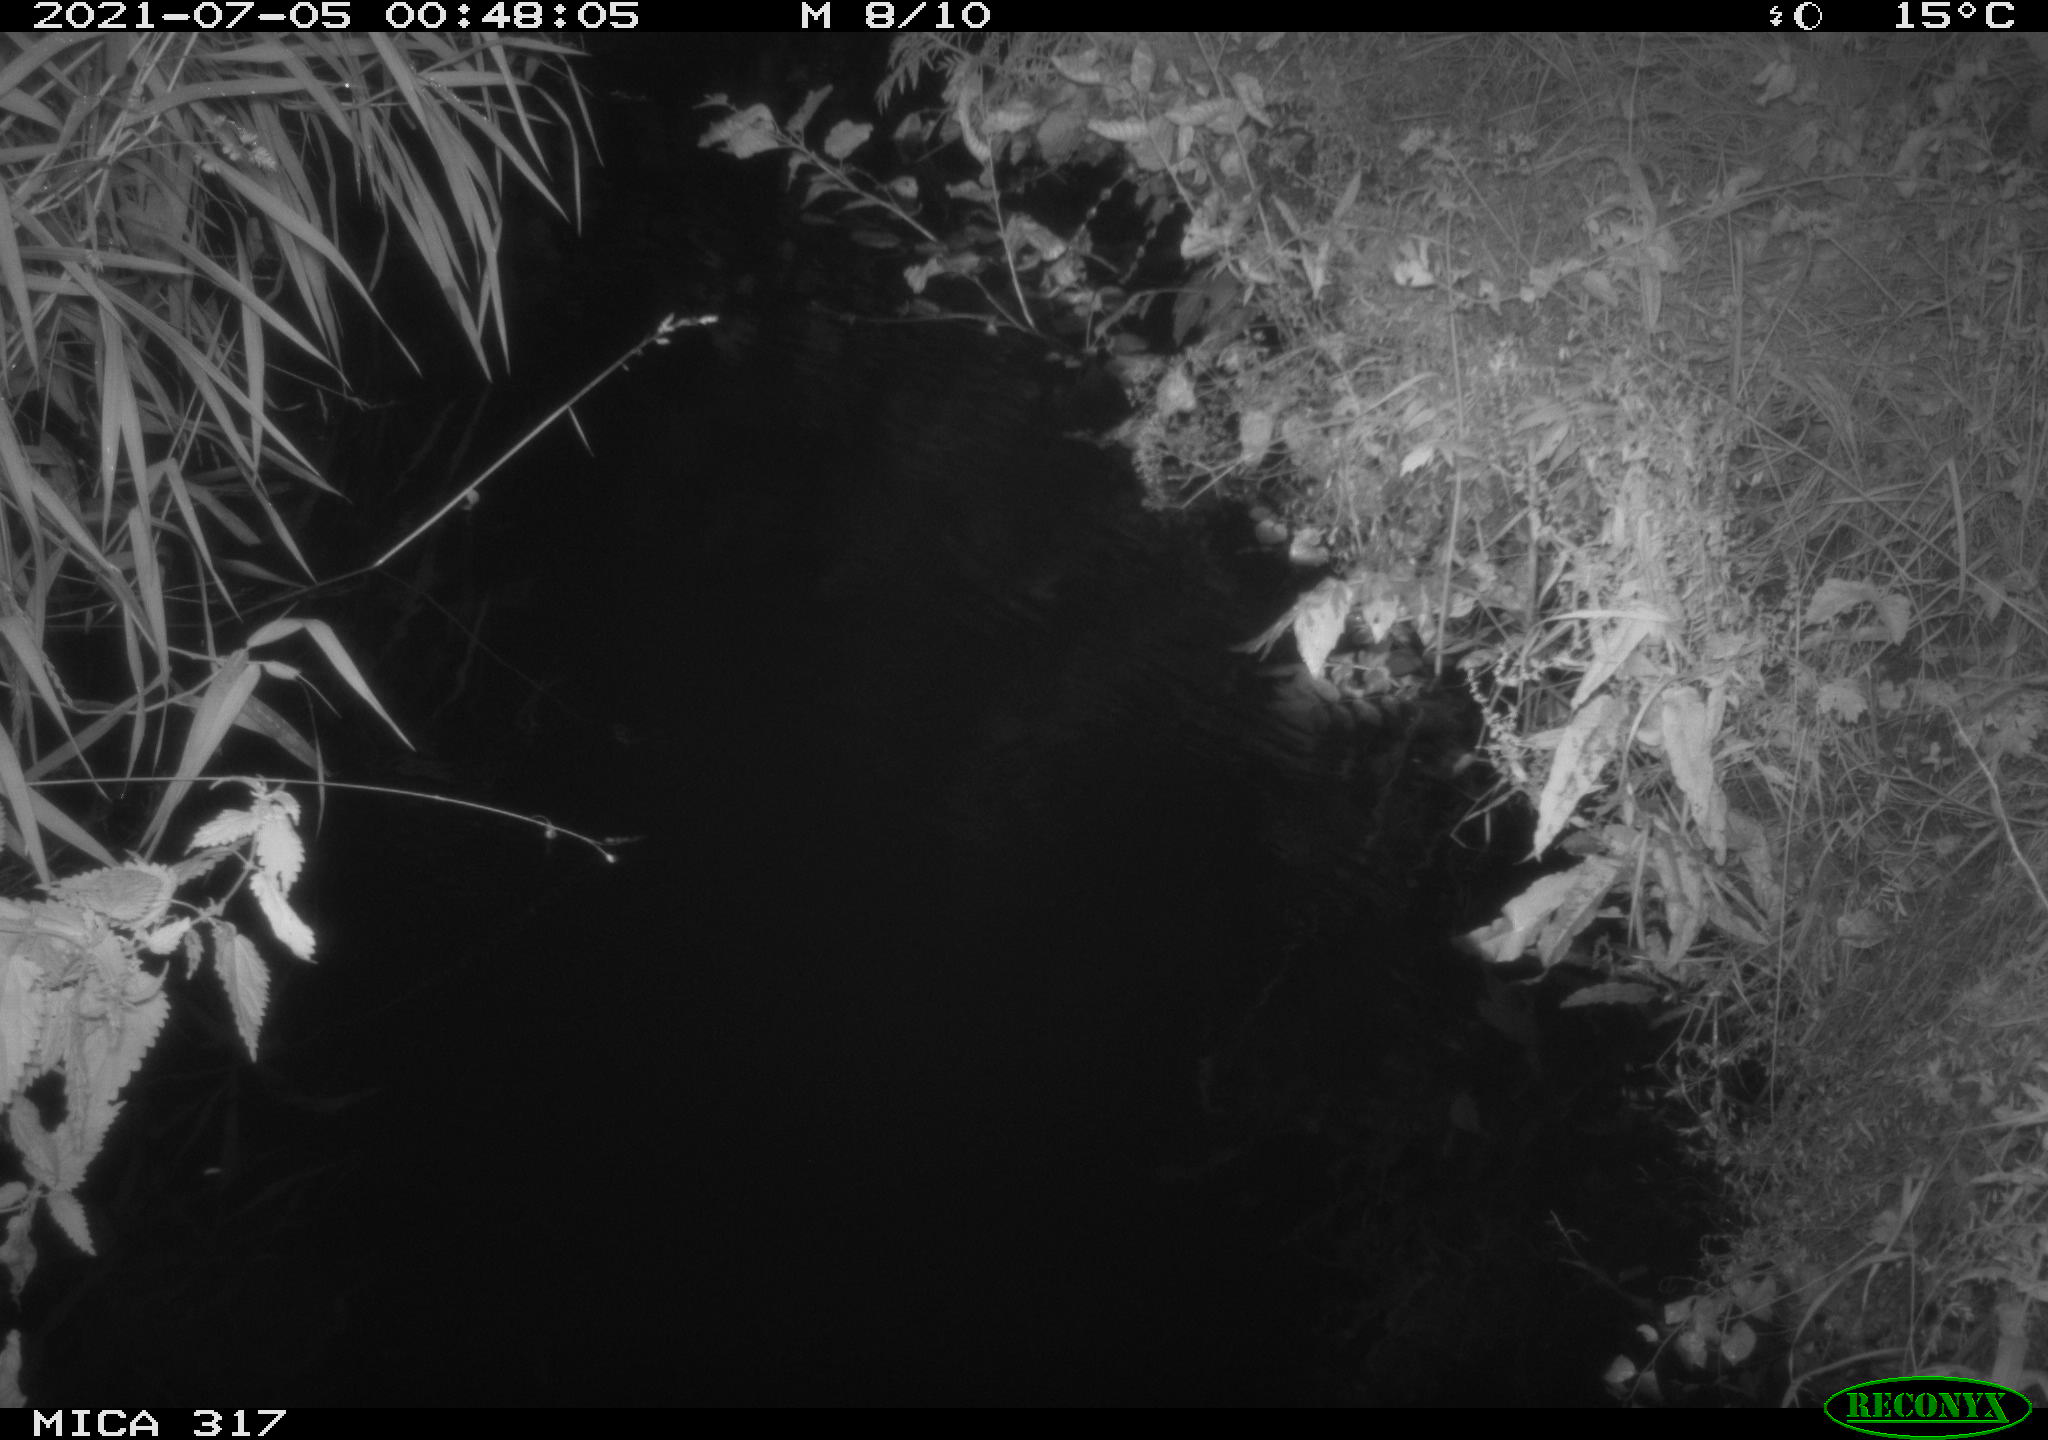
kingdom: Animalia
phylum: Chordata
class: Aves
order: Anseriformes
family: Anatidae
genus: Anas
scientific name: Anas platyrhynchos
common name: Mallard
